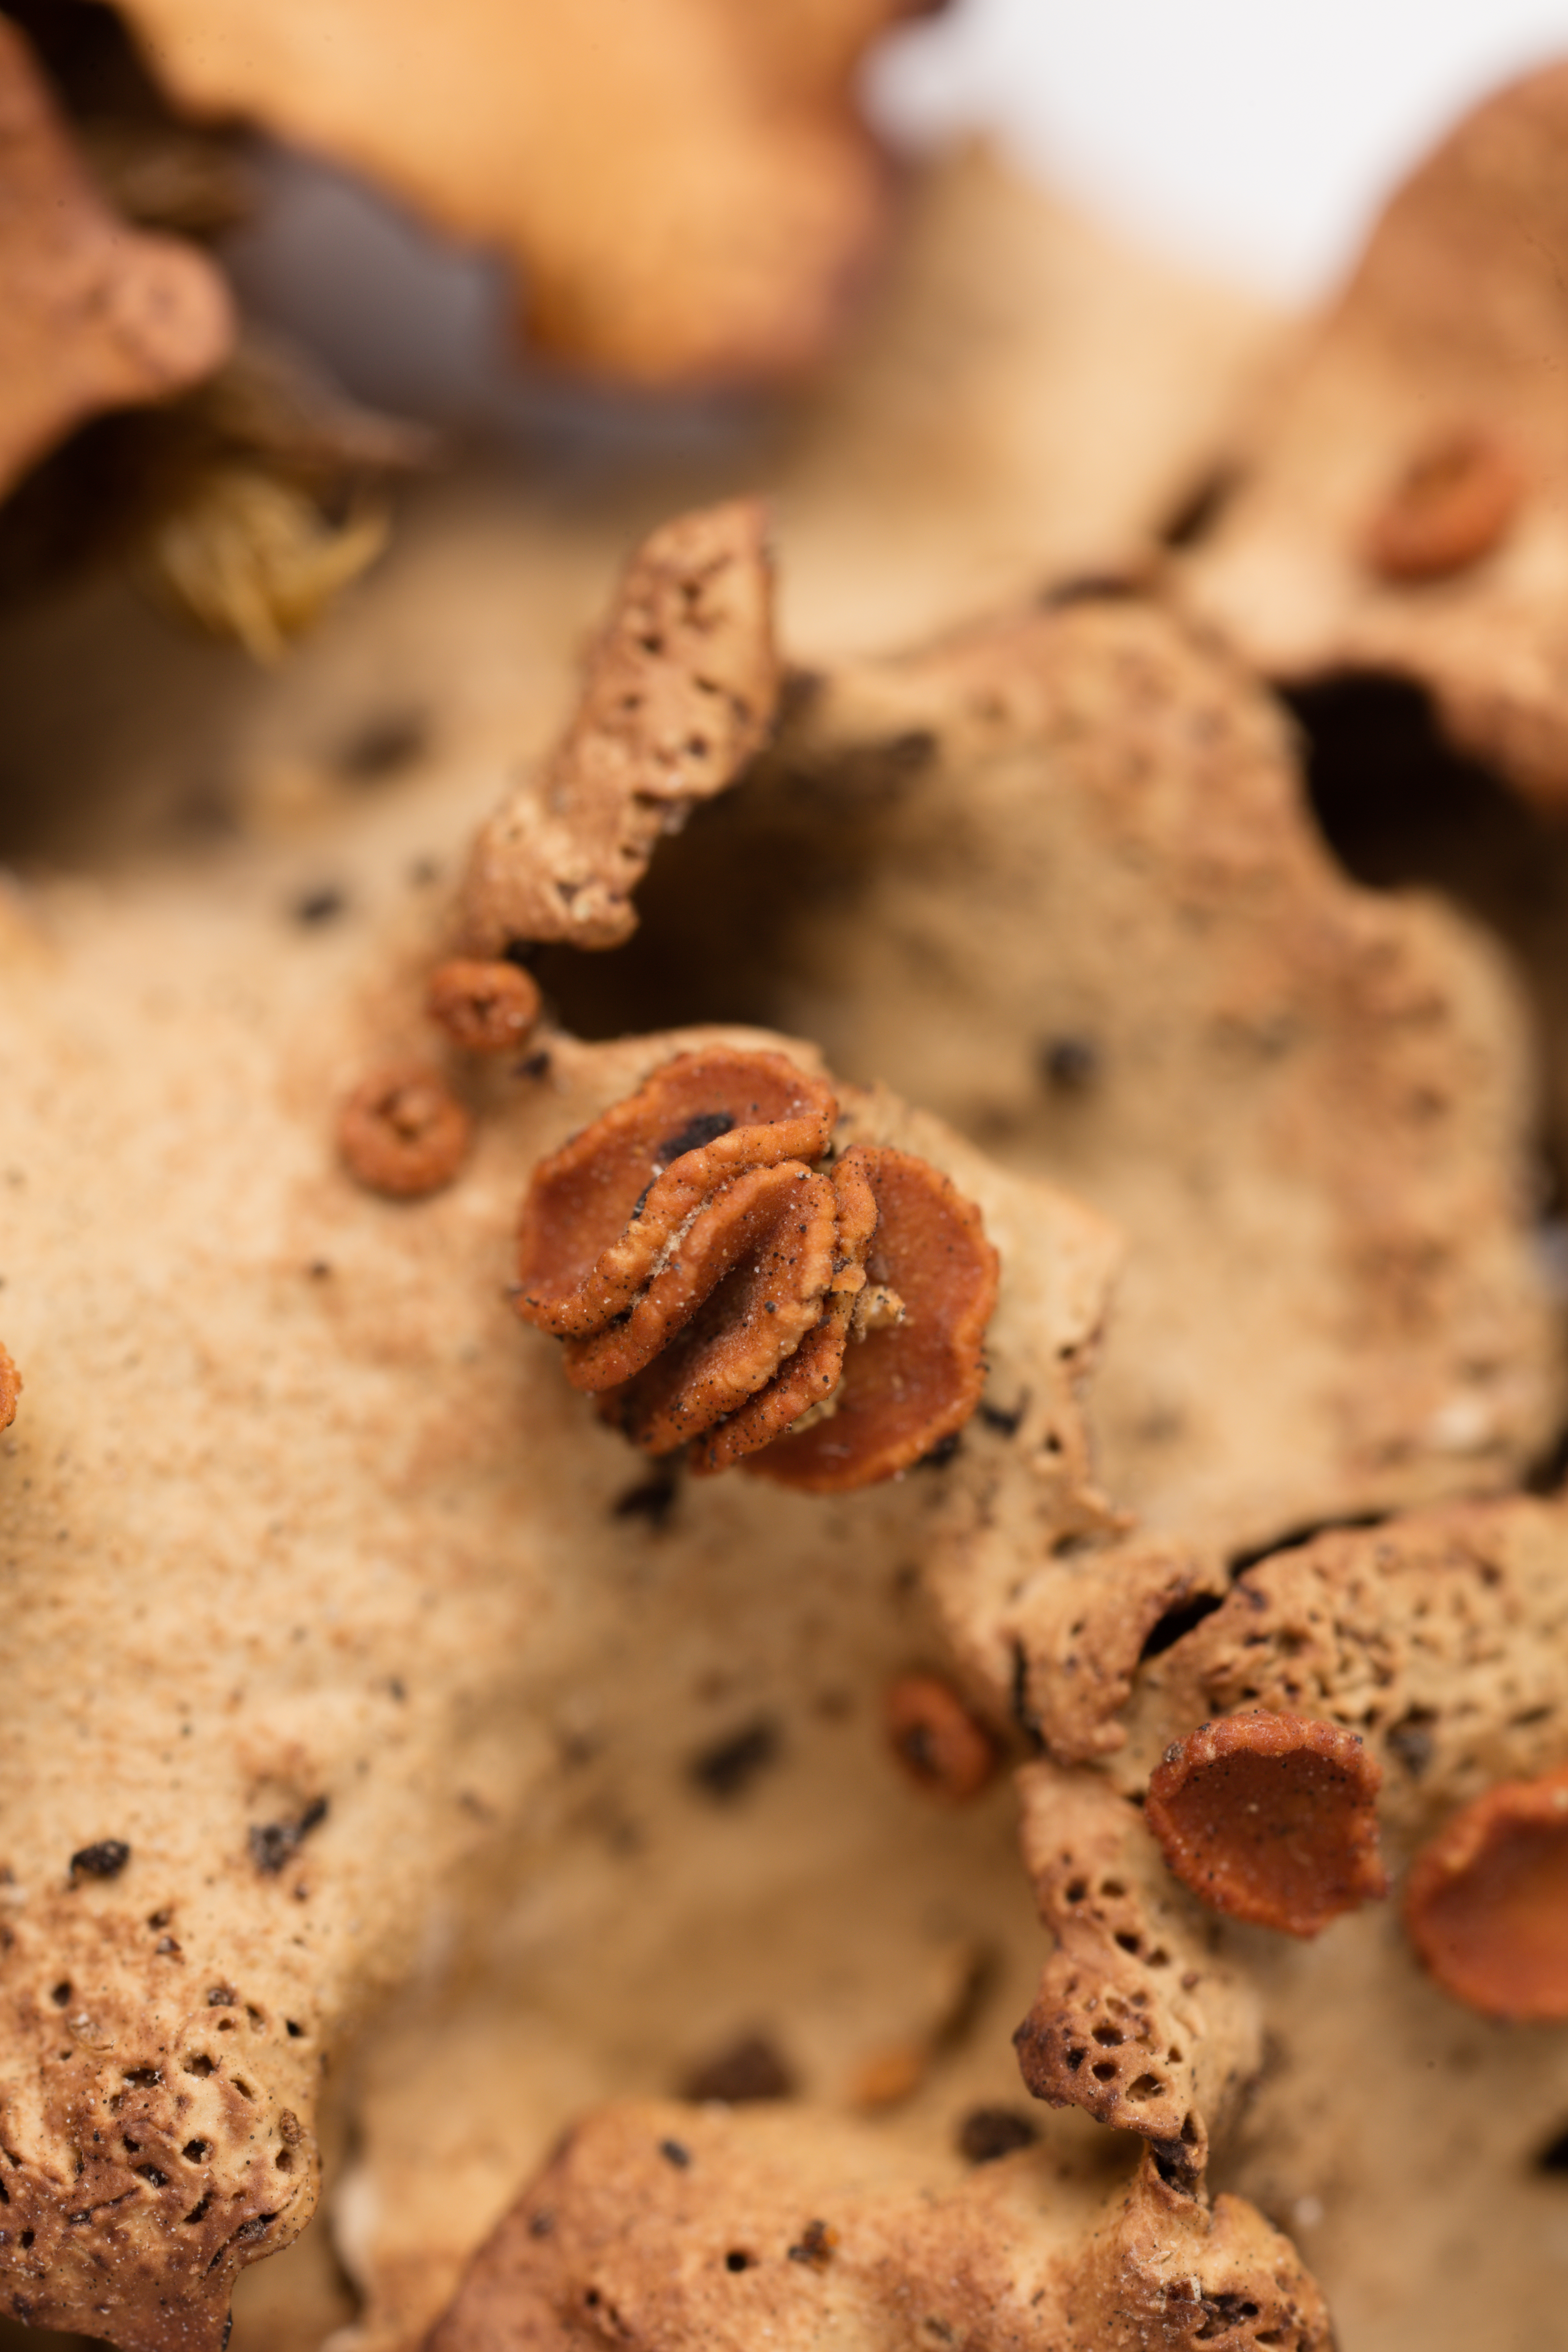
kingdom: Fungi
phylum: Ascomycota
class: Lecanoromycetes
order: Peltigerales
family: Lobariaceae
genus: Sticta
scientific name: Sticta subcaperata
